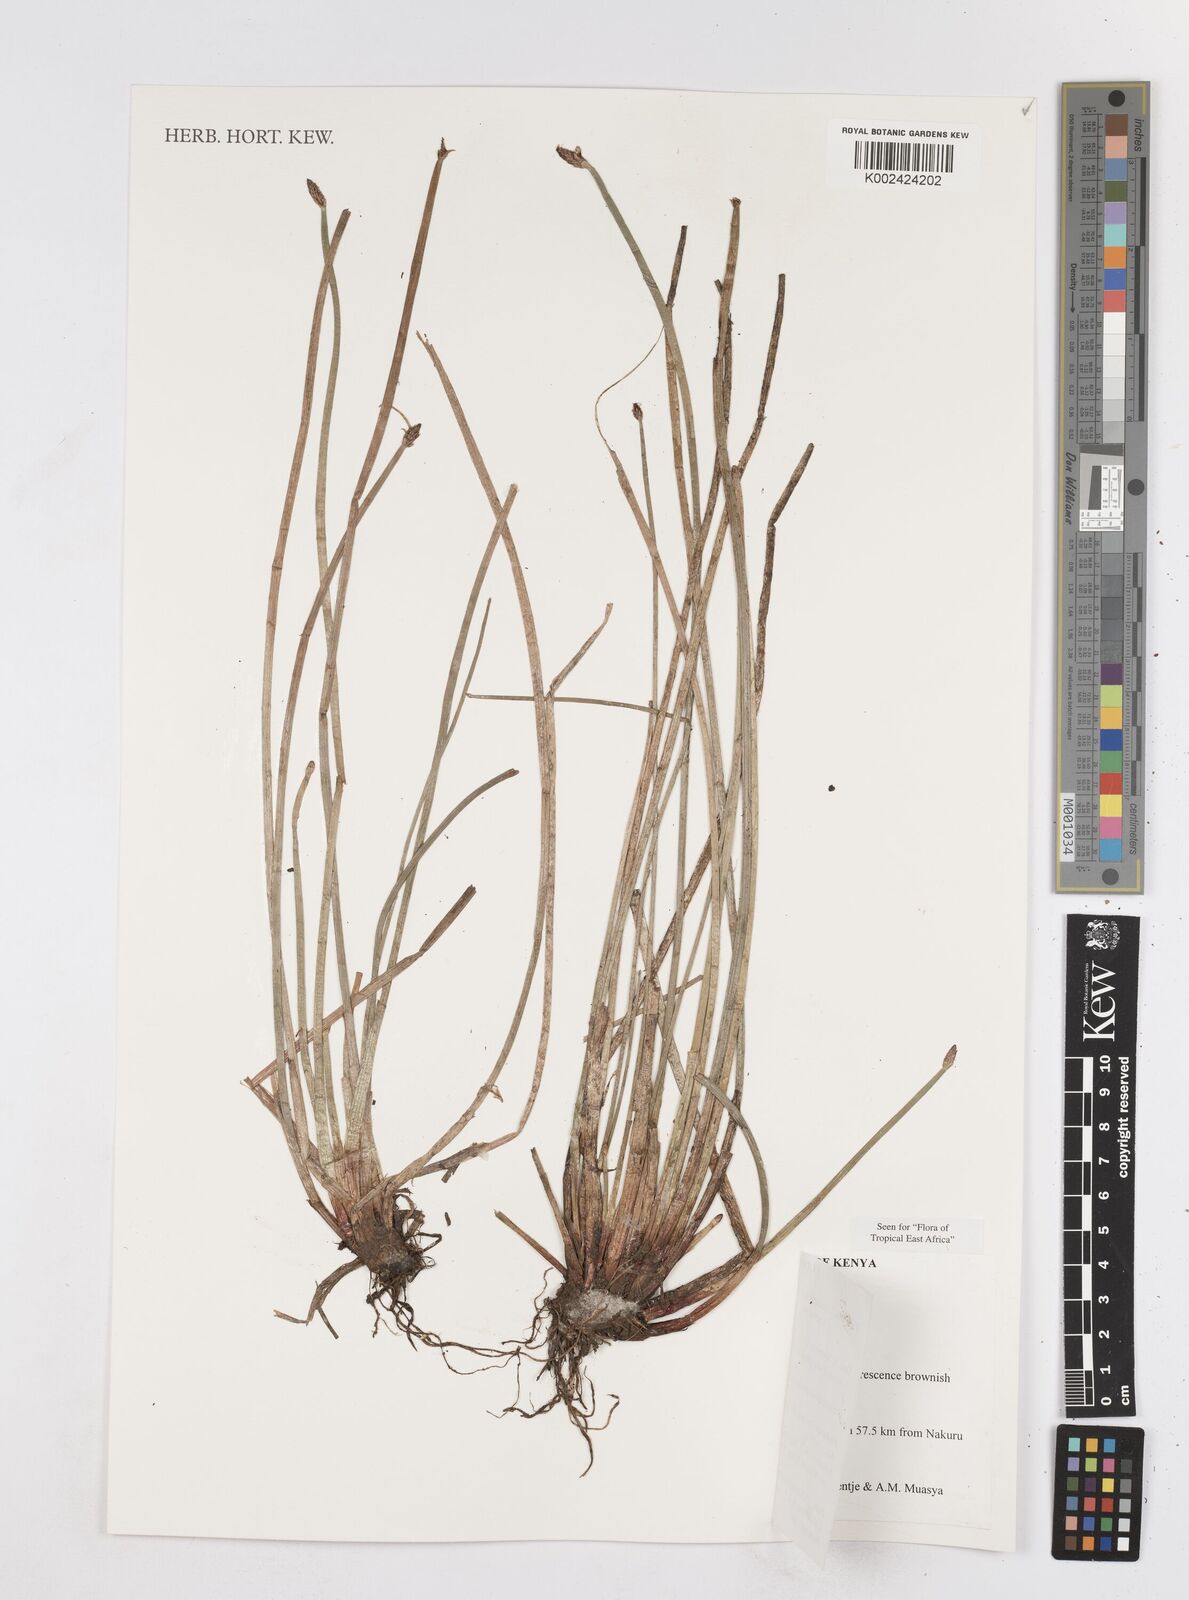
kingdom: Plantae
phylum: Tracheophyta
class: Liliopsida
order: Poales
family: Cyperaceae
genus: Eleocharis
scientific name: Eleocharis marginulata
